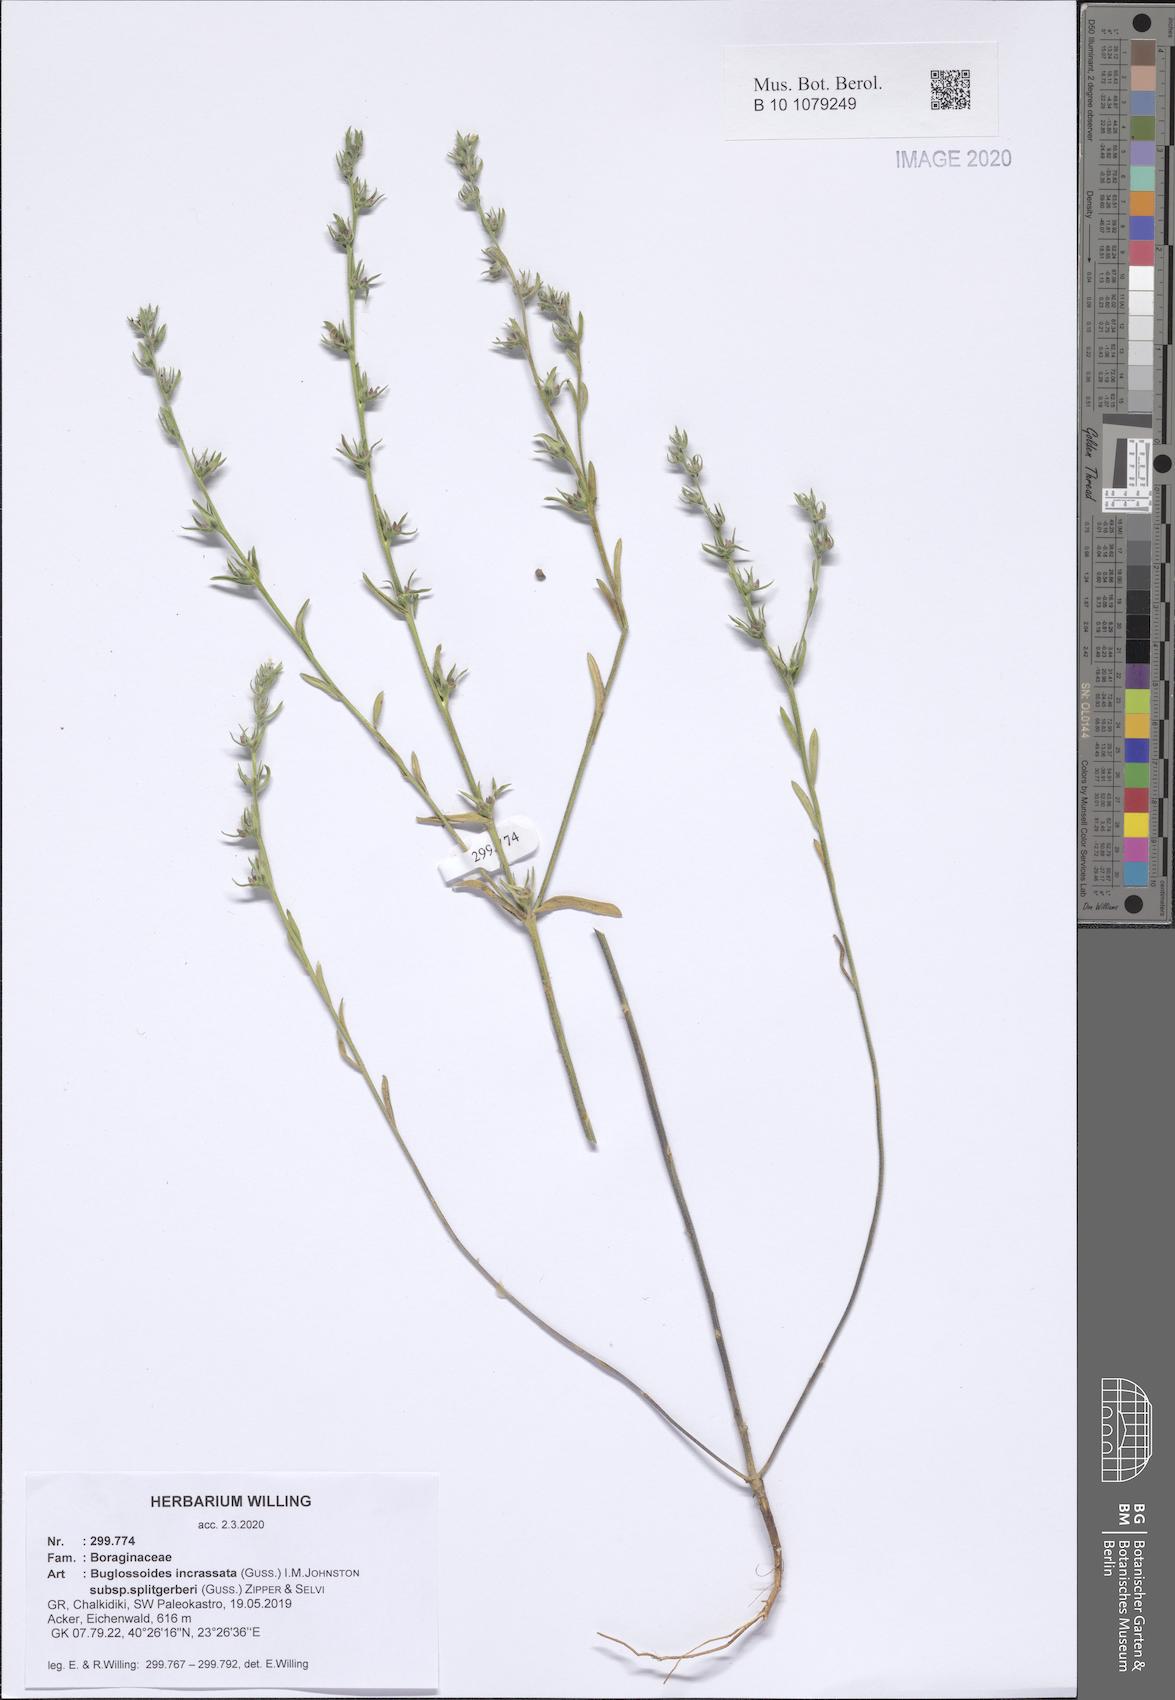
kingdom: Plantae
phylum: Tracheophyta
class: Magnoliopsida
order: Boraginales
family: Boraginaceae
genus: Buglossoides
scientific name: Buglossoides incrassata
